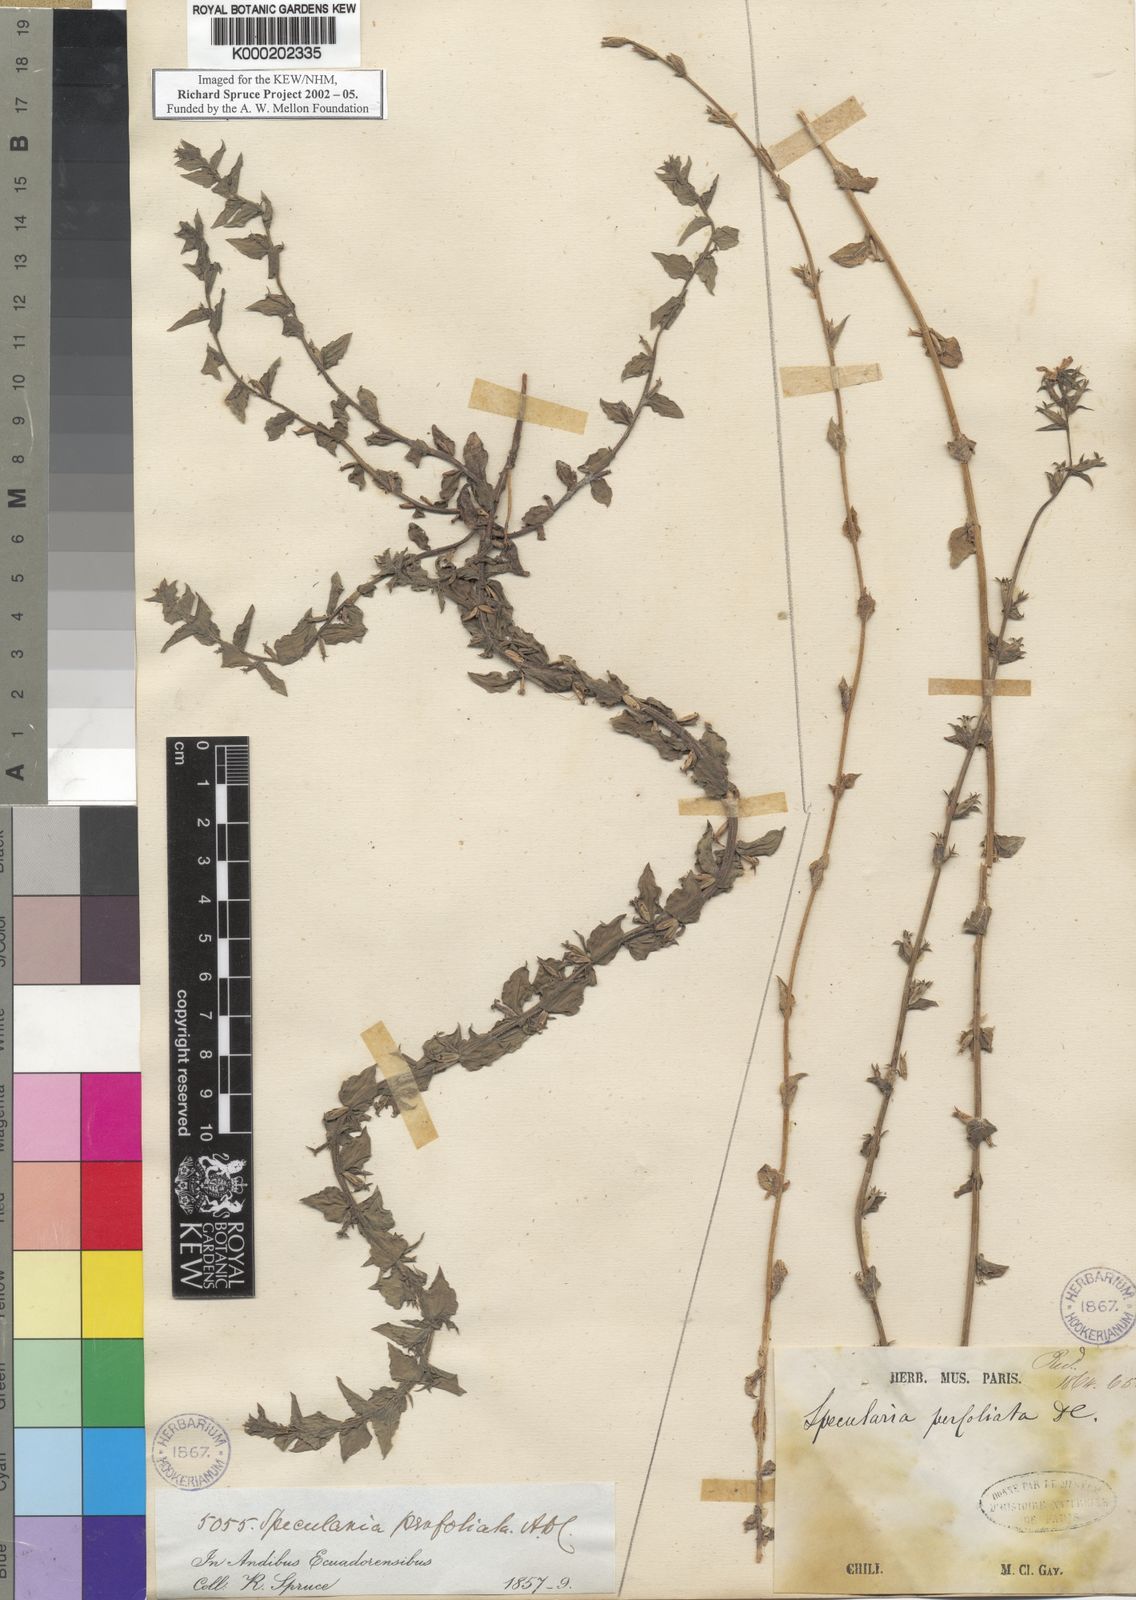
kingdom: Plantae
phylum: Tracheophyta
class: Magnoliopsida
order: Asterales
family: Campanulaceae
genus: Triodanis
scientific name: Triodanis perfoliata
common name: Clasping venus' looking-glass
